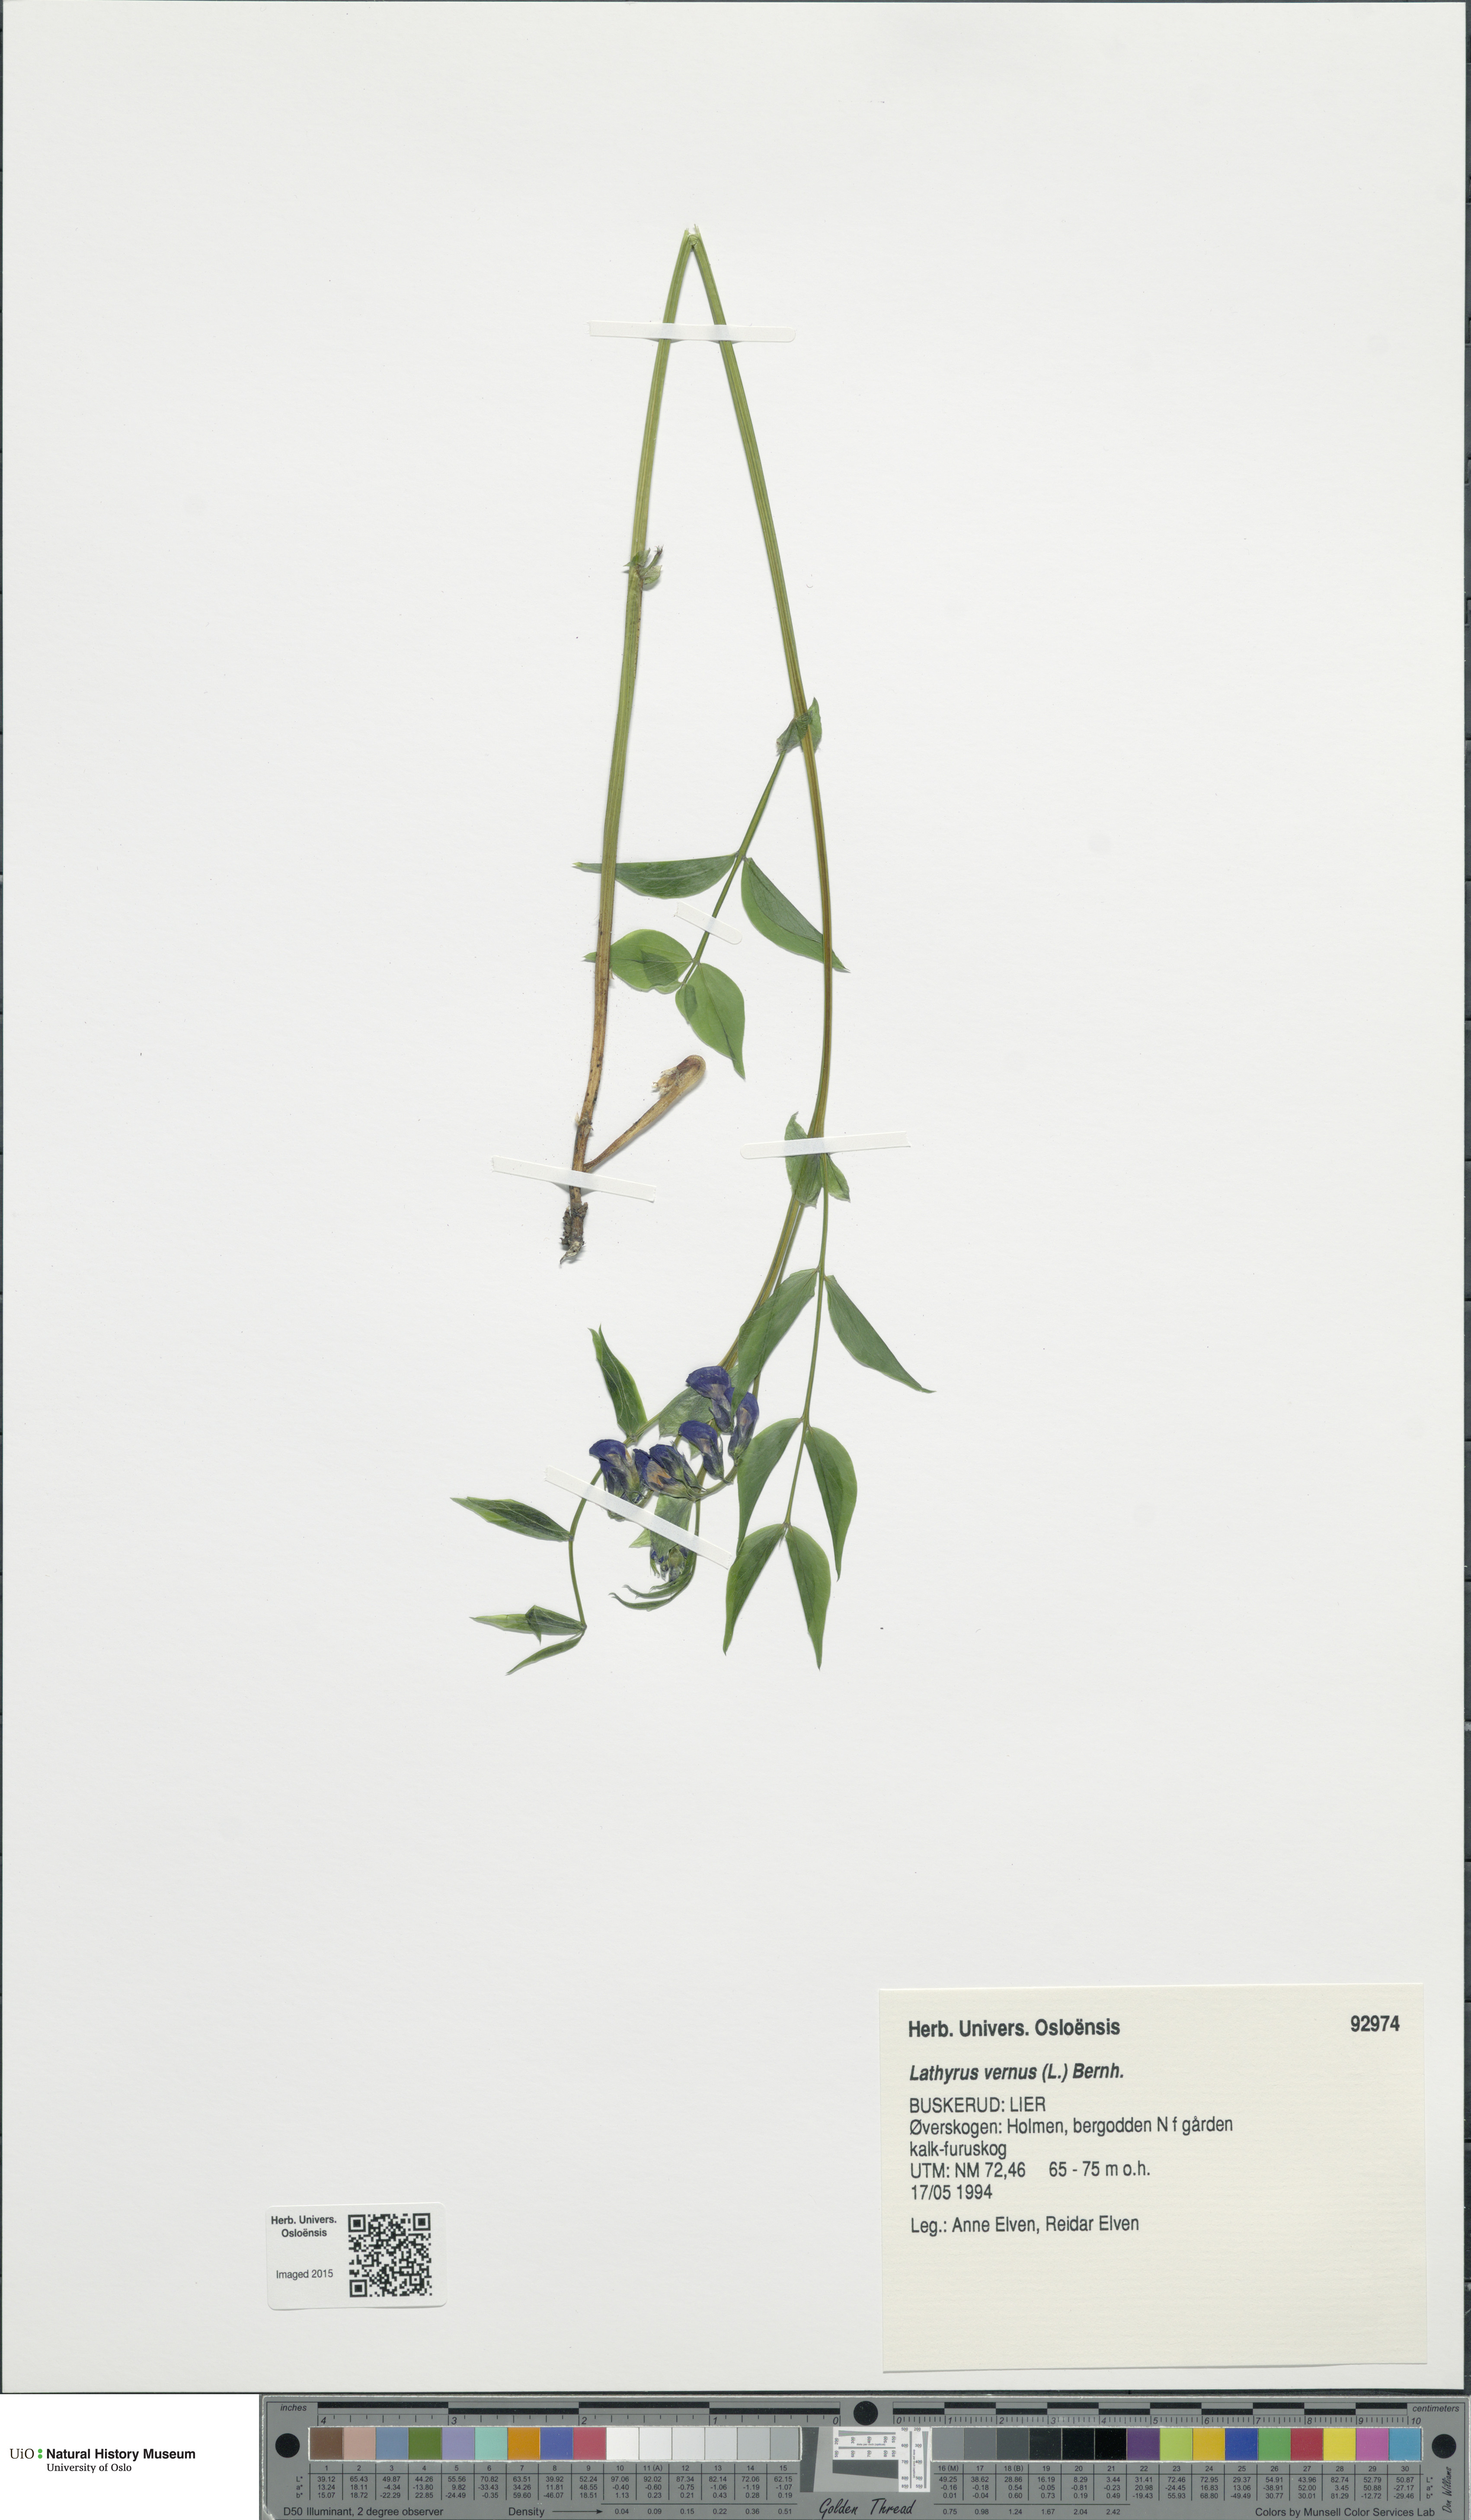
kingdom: Plantae
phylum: Tracheophyta
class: Magnoliopsida
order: Fabales
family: Fabaceae
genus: Lathyrus
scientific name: Lathyrus vernus
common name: Spring pea
